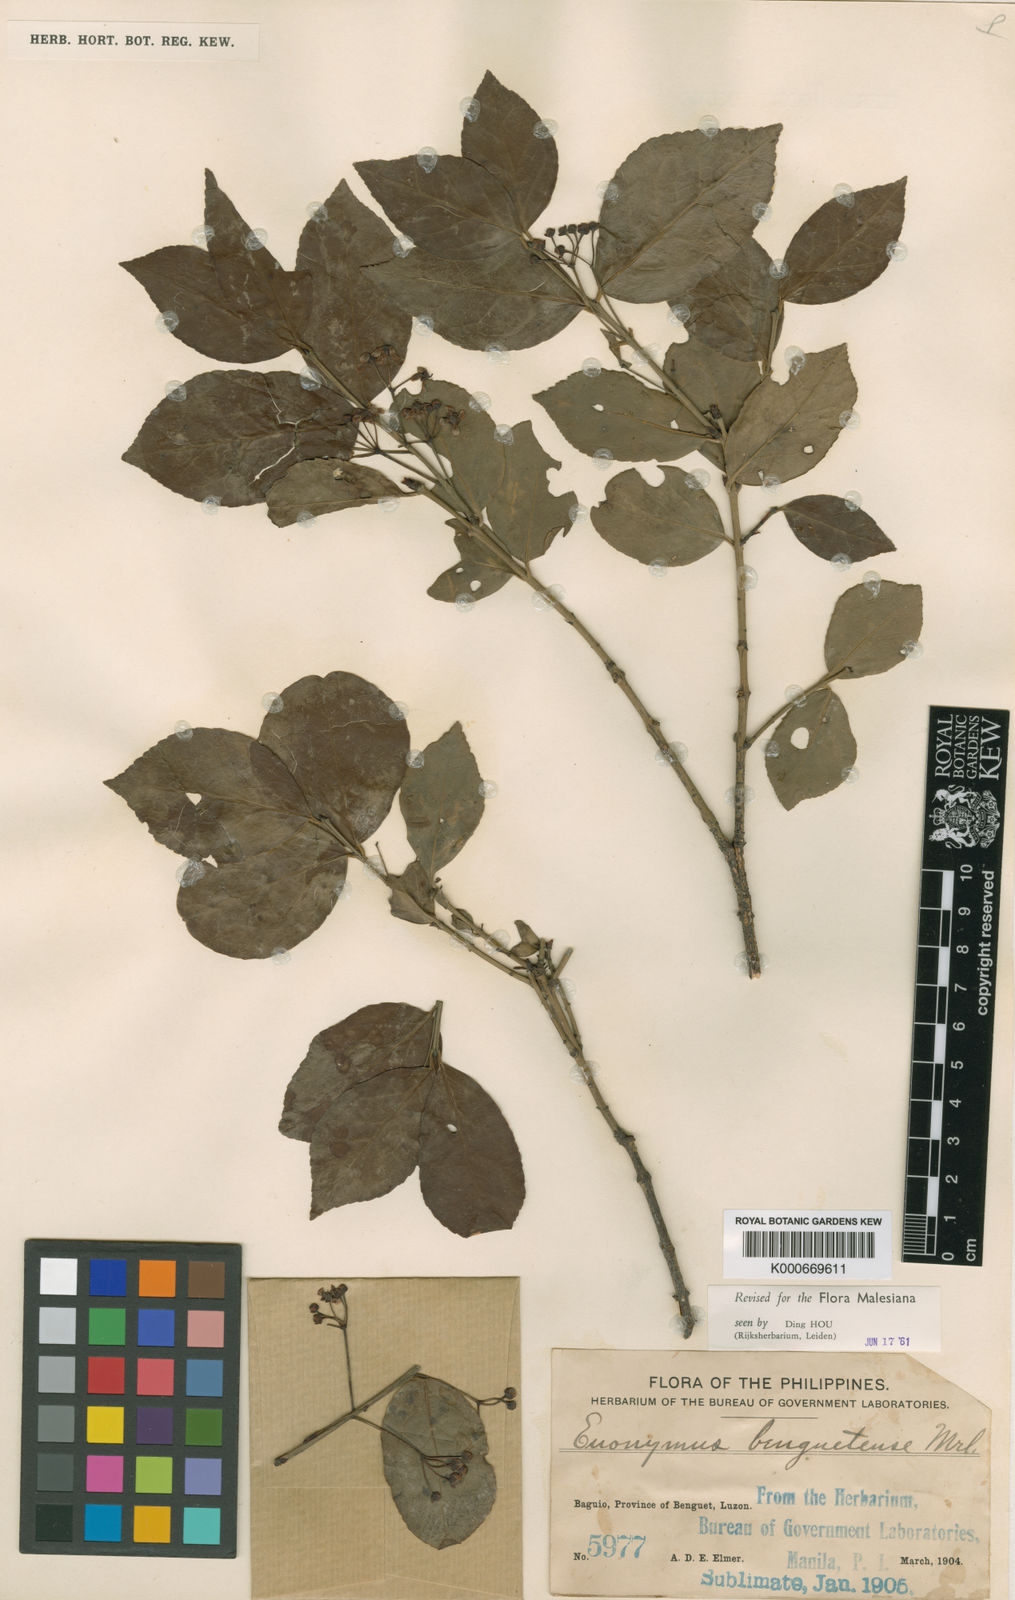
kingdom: Plantae
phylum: Tracheophyta
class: Magnoliopsida
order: Celastrales
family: Celastraceae
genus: Euonymus
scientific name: Euonymus benguetensis
